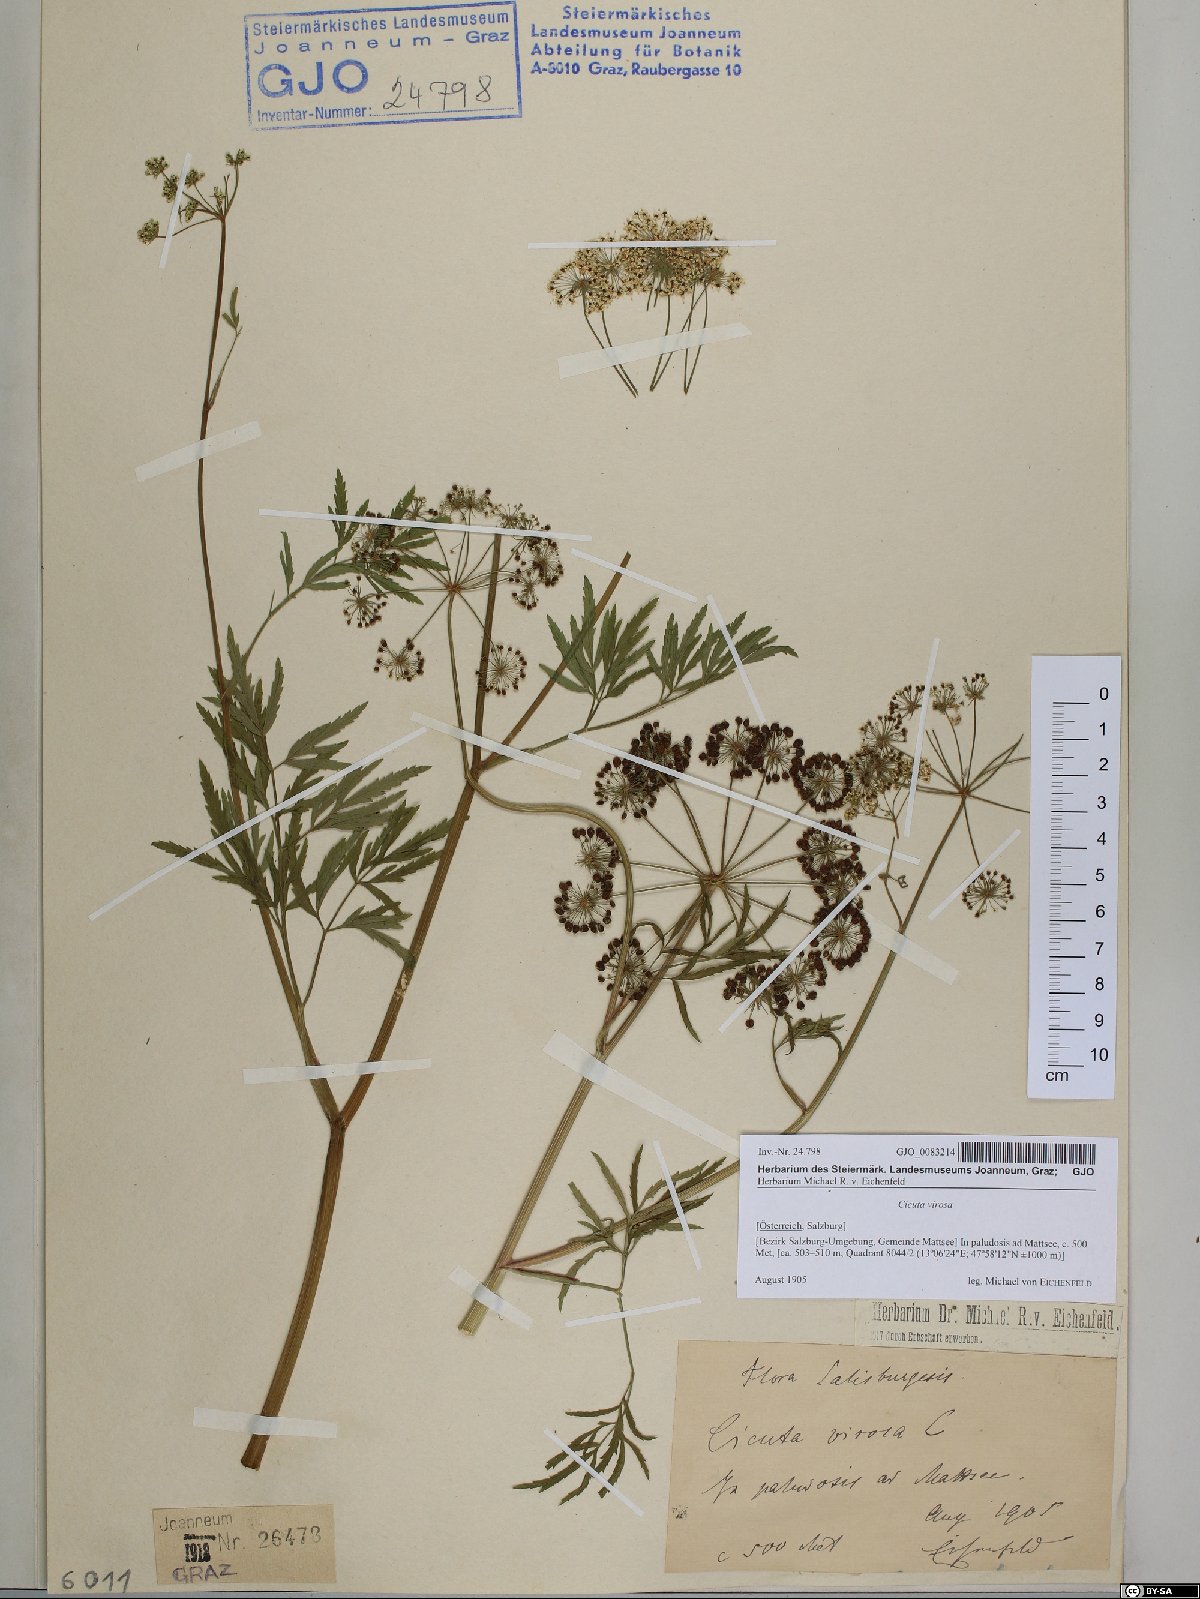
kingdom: Plantae
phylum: Tracheophyta
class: Magnoliopsida
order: Apiales
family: Apiaceae
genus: Cicuta
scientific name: Cicuta virosa
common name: Cowbane
